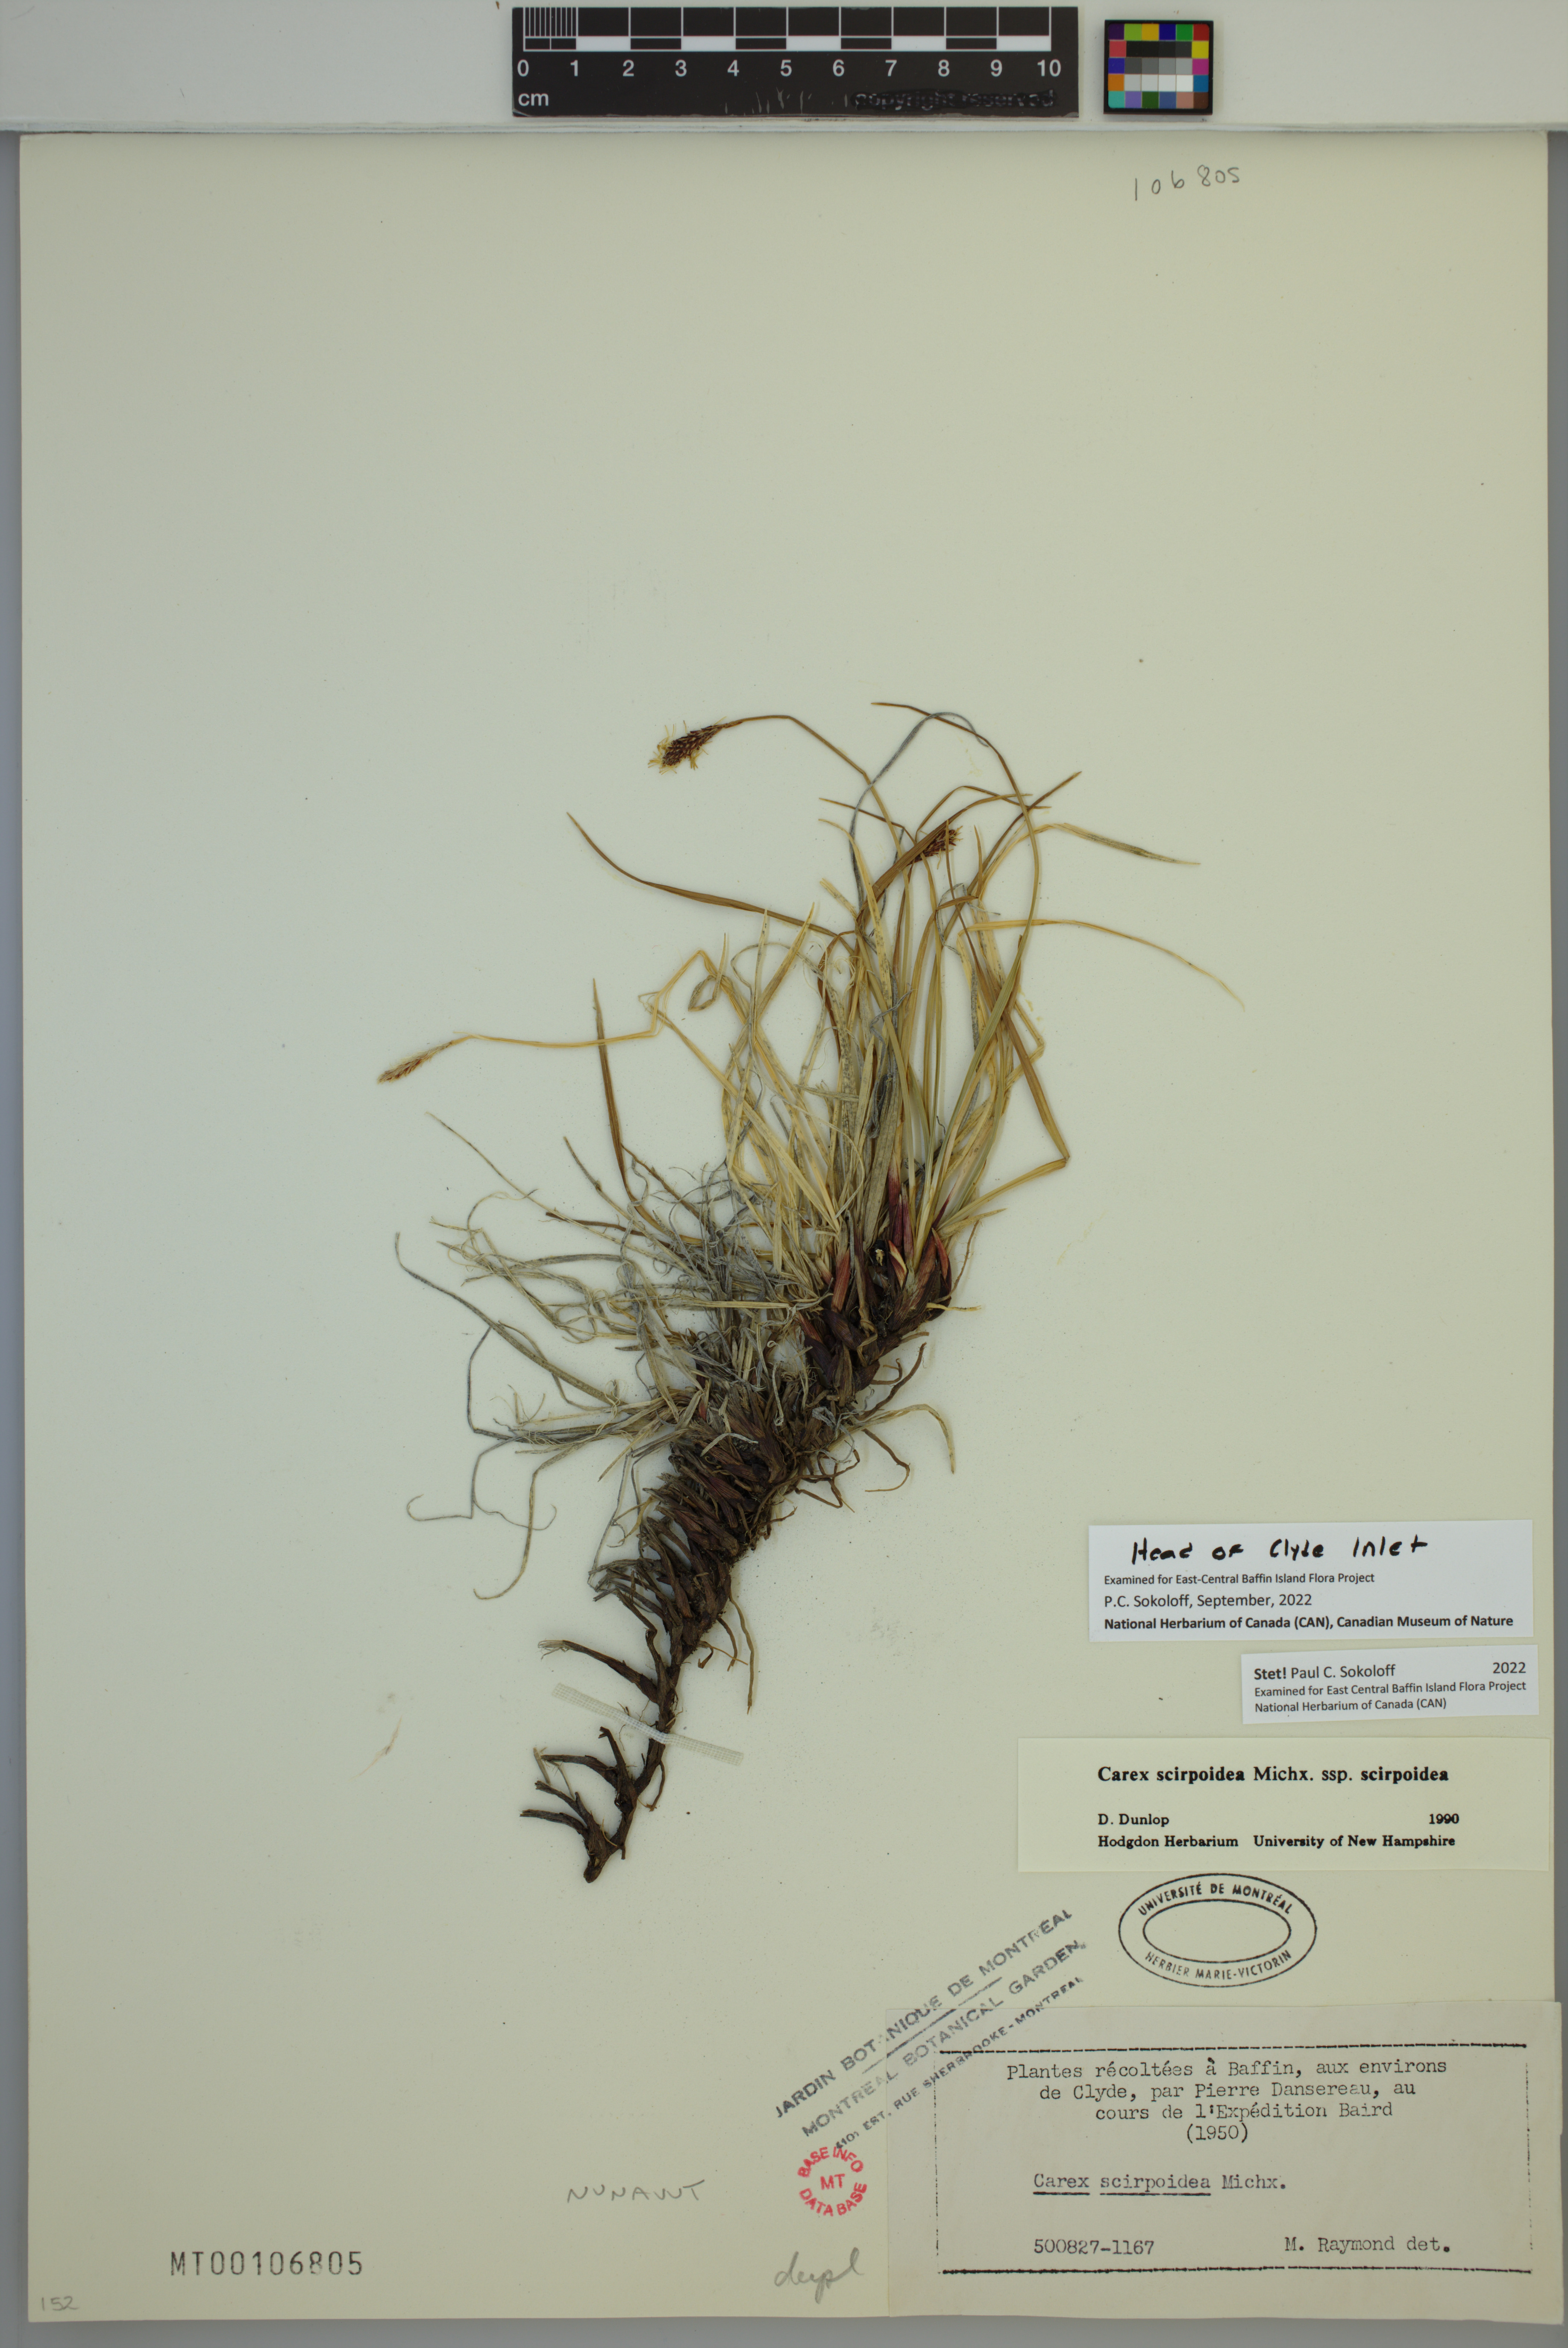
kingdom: Plantae
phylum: Tracheophyta
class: Liliopsida
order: Poales
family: Cyperaceae
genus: Carex
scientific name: Carex scirpoidea
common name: Canada single-spike sedge
